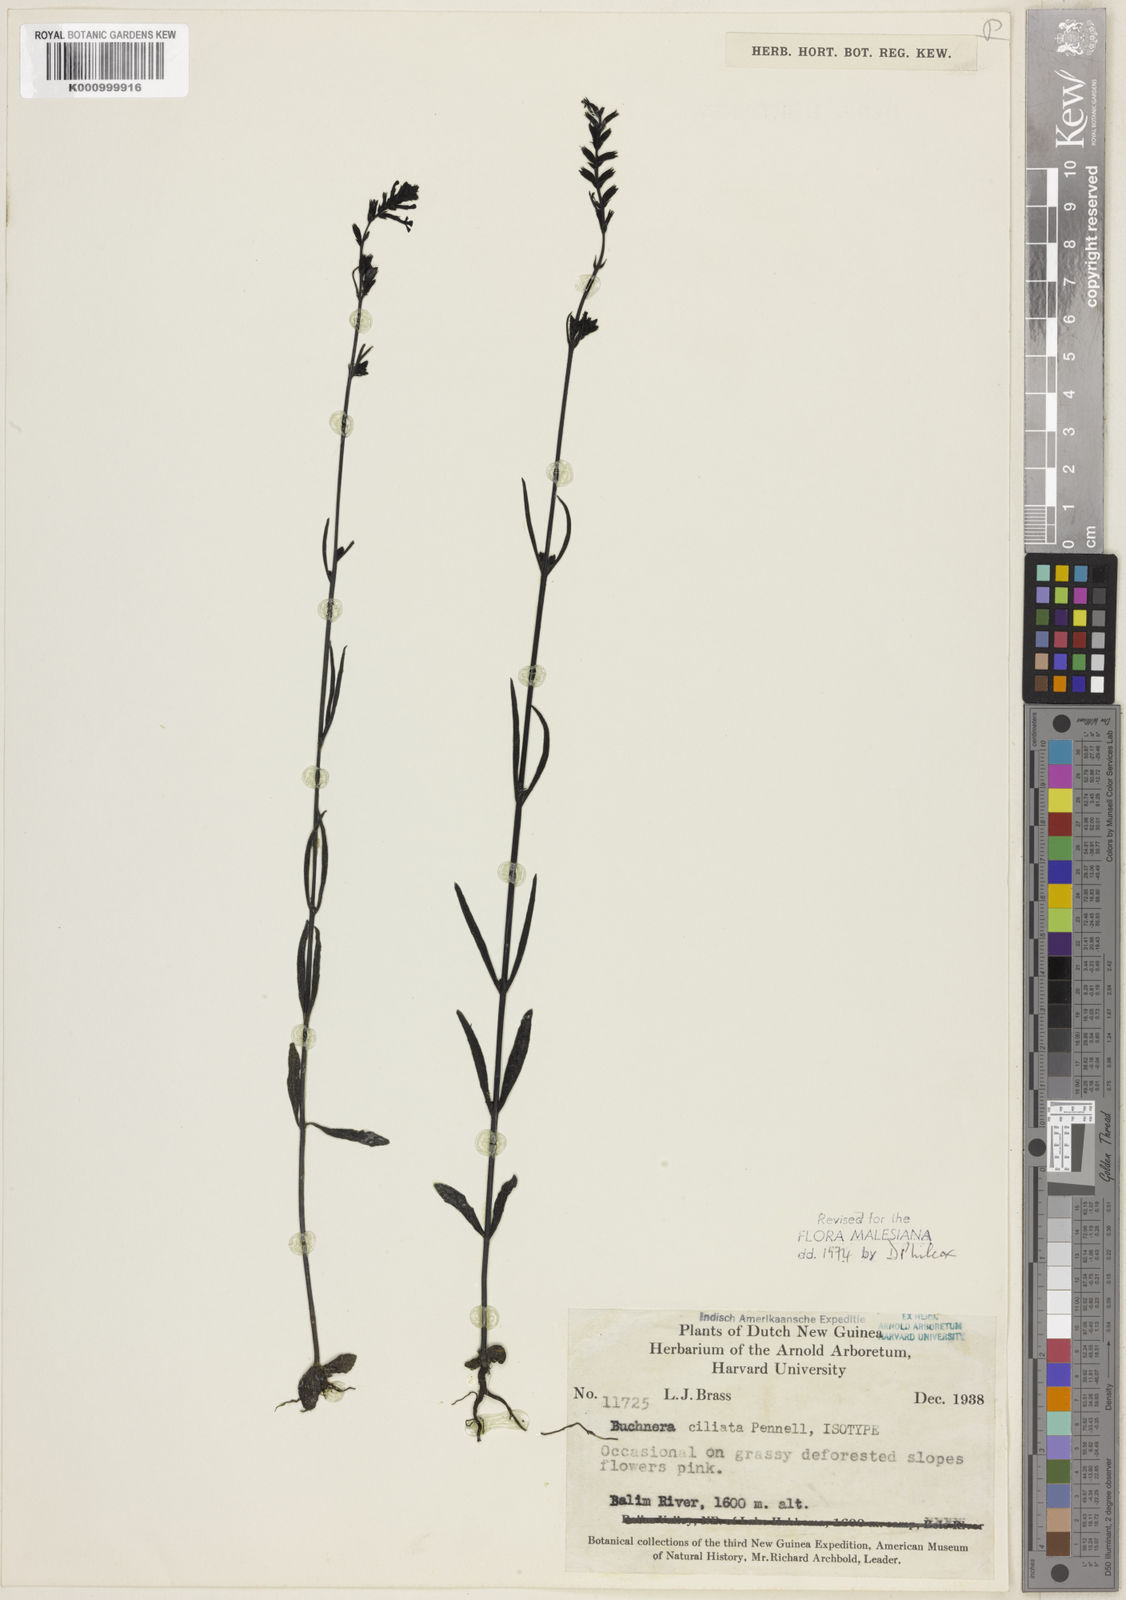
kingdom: Plantae
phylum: Tracheophyta
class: Magnoliopsida
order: Lamiales
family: Orobanchaceae
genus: Buchnera
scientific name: Buchnera ciliata
